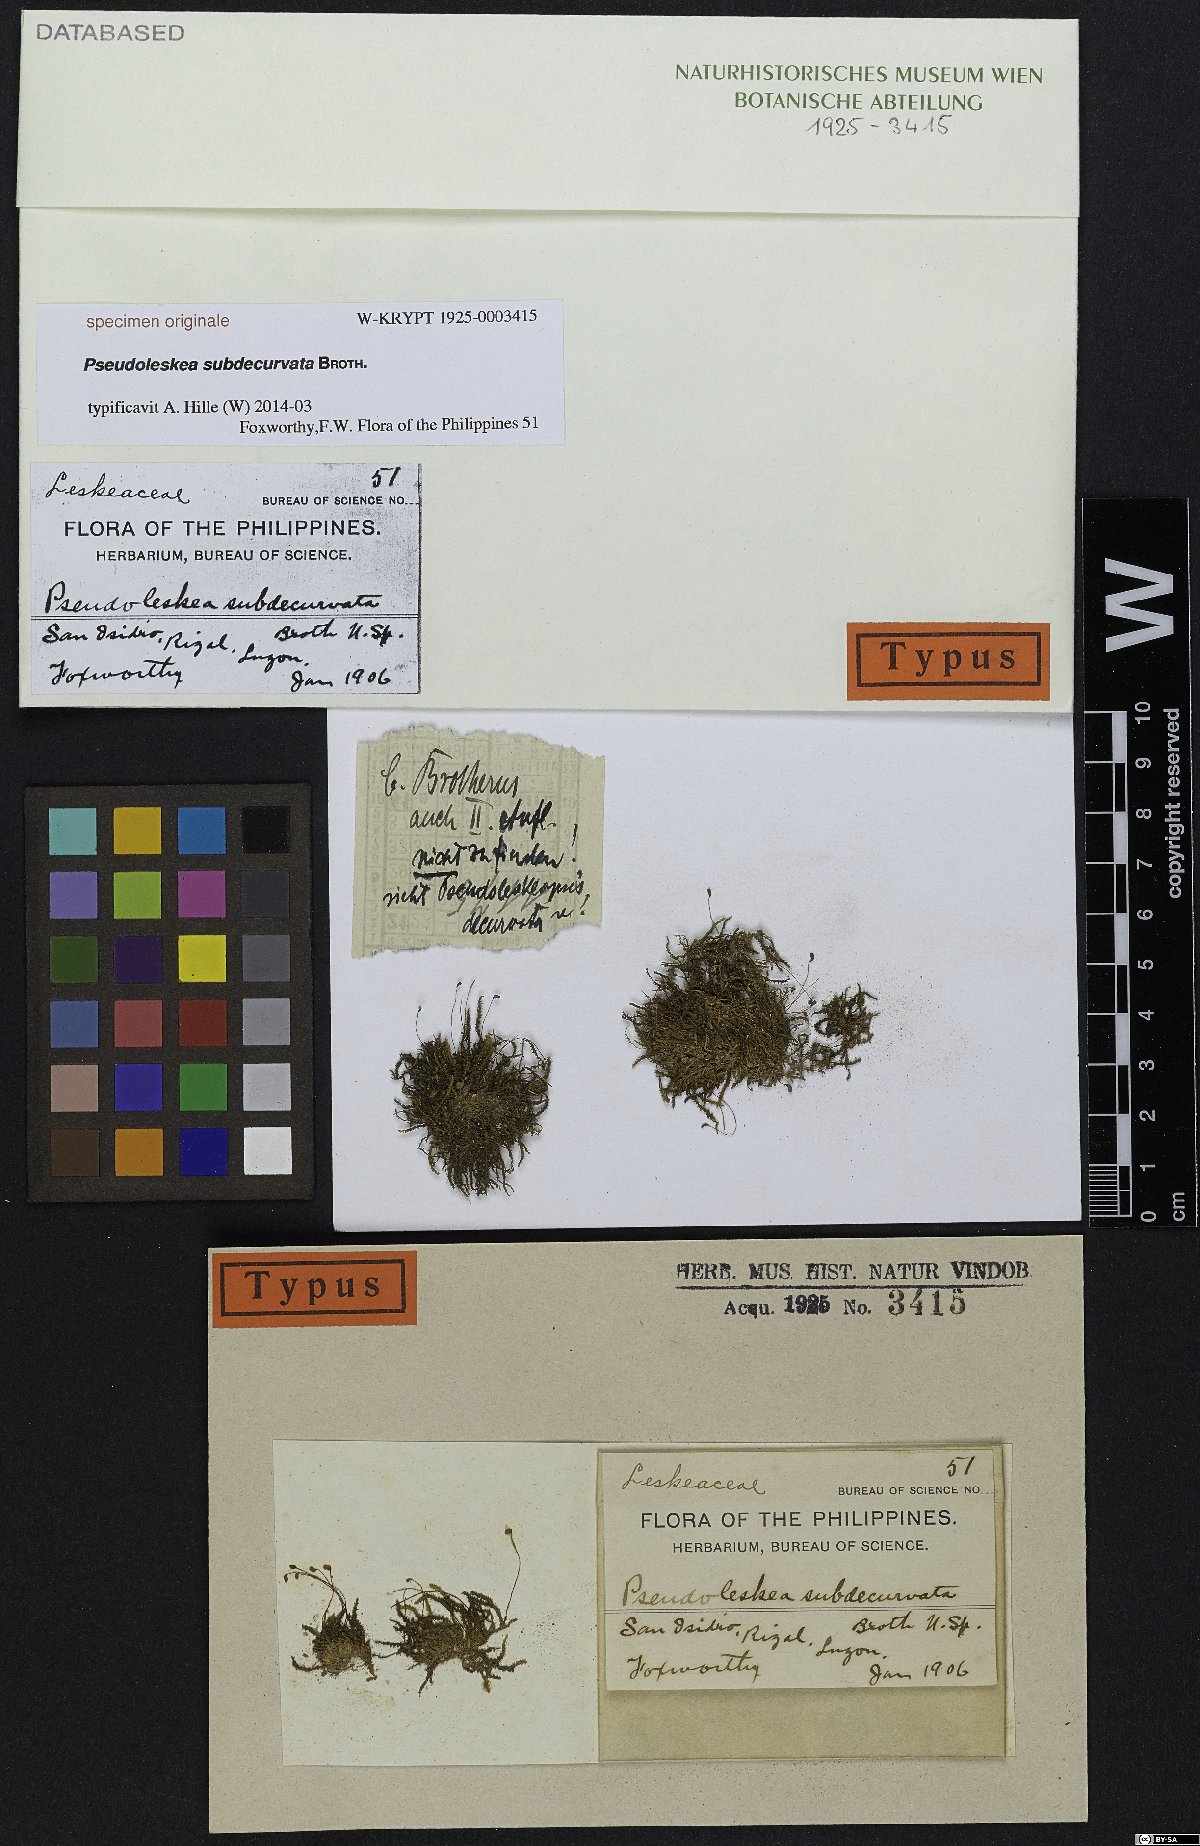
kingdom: Plantae
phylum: Bryophyta
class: Bryopsida
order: Hypnales
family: Leskeaceae
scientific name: Leskeaceae
